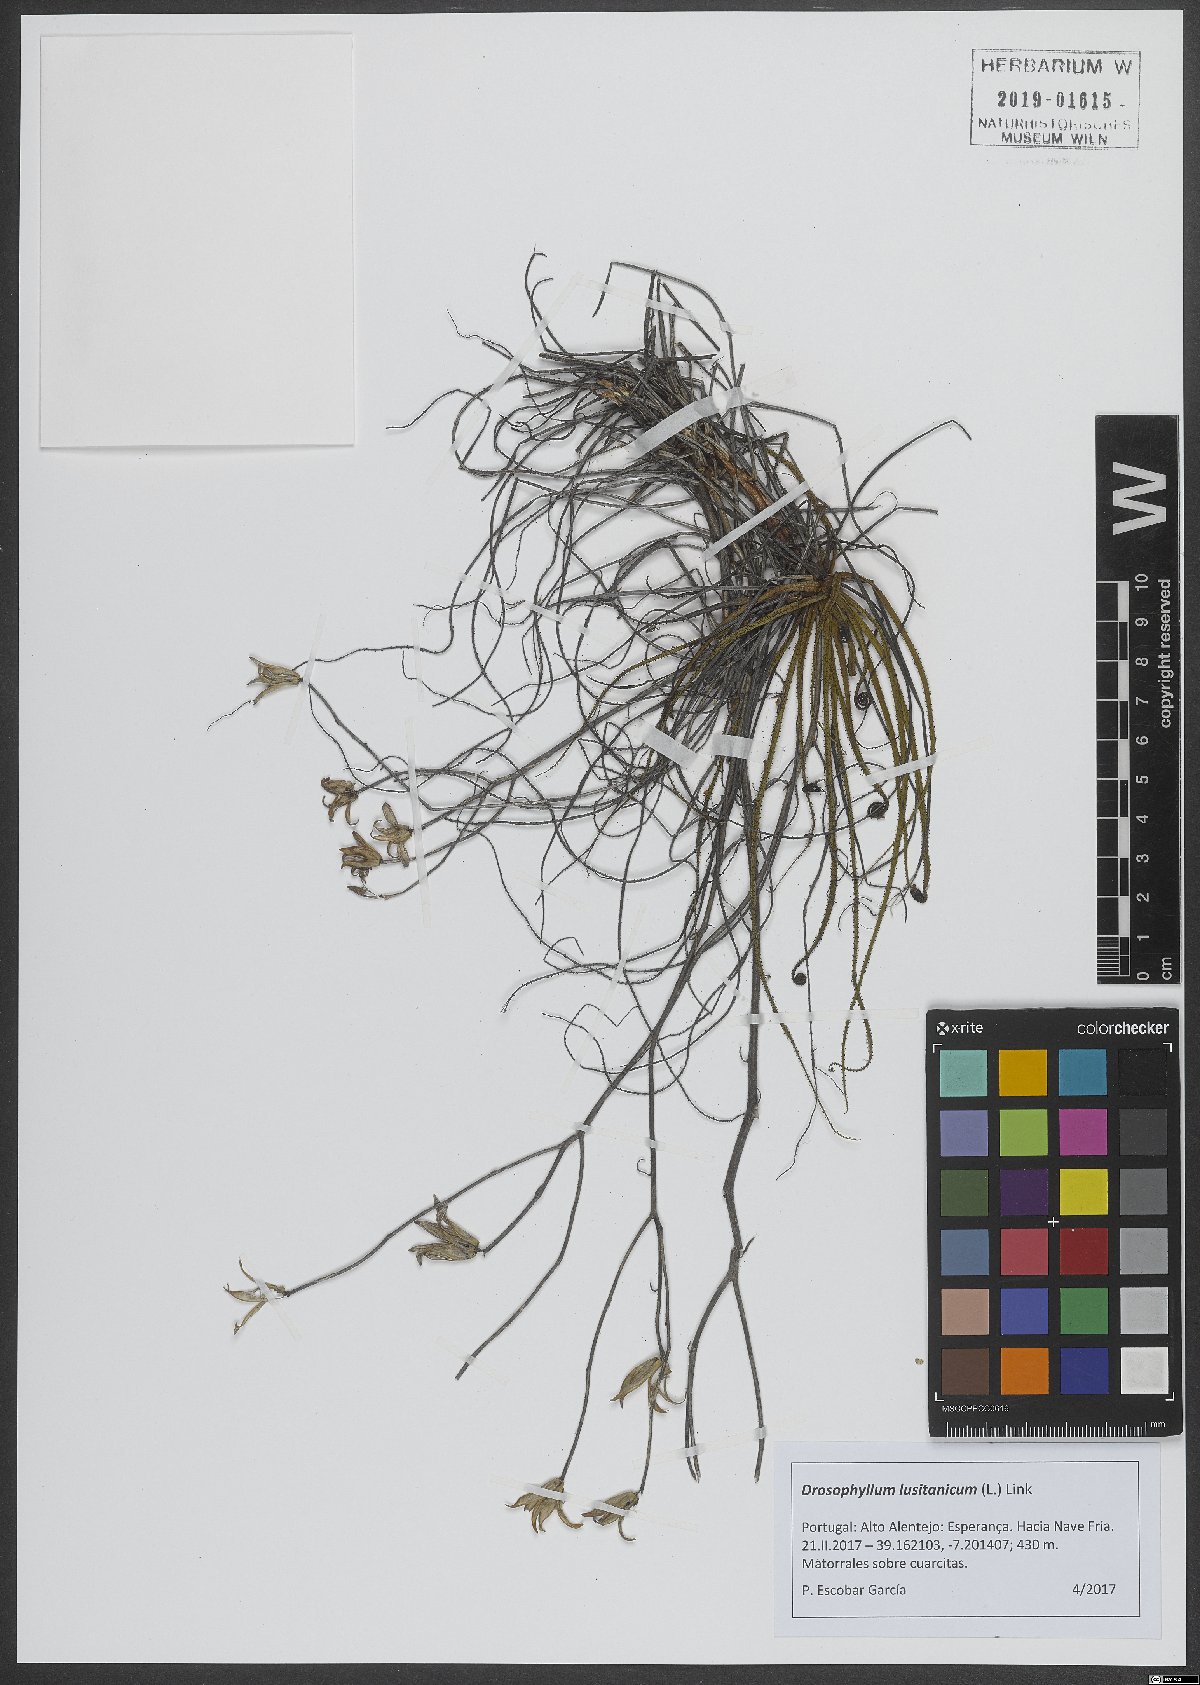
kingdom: Plantae
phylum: Tracheophyta
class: Magnoliopsida
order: Caryophyllales
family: Drosophyllaceae
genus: Drosophyllum
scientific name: Drosophyllum lusitanicum
